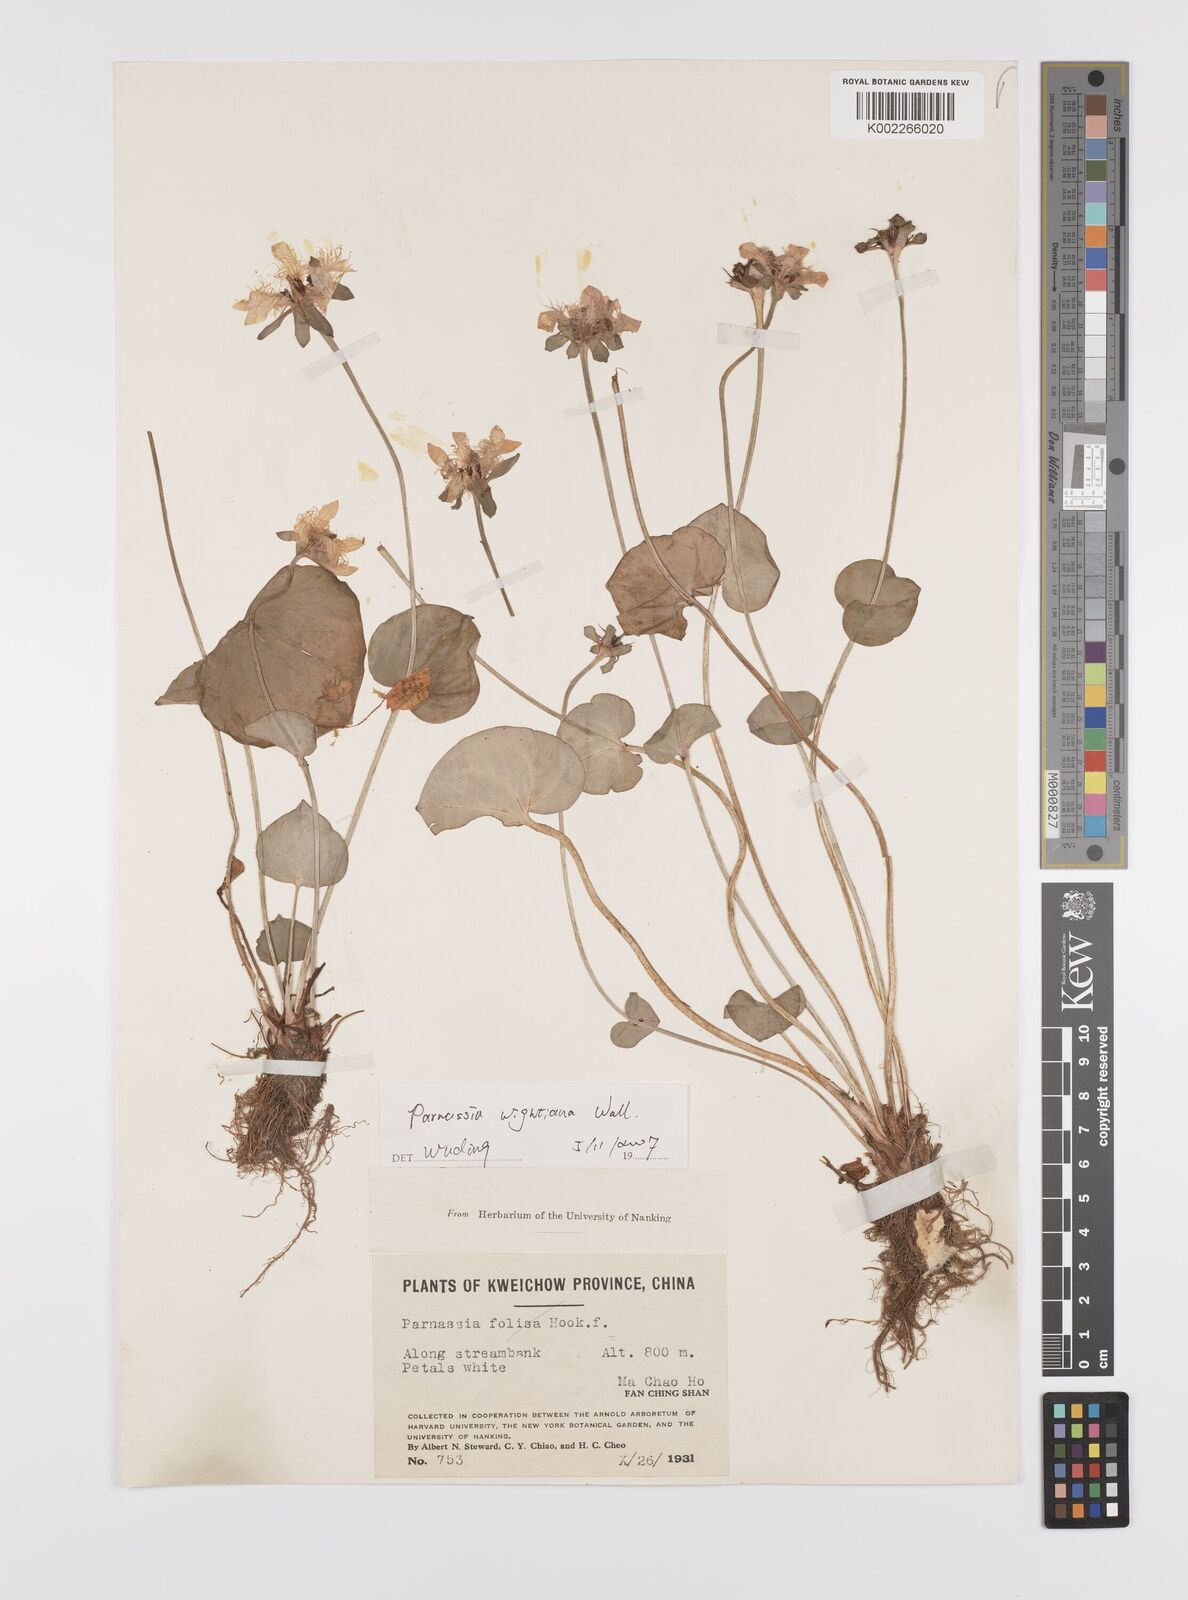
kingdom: Plantae
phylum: Tracheophyta
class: Magnoliopsida
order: Celastrales
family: Parnassiaceae
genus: Parnassia
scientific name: Parnassia wightiana
